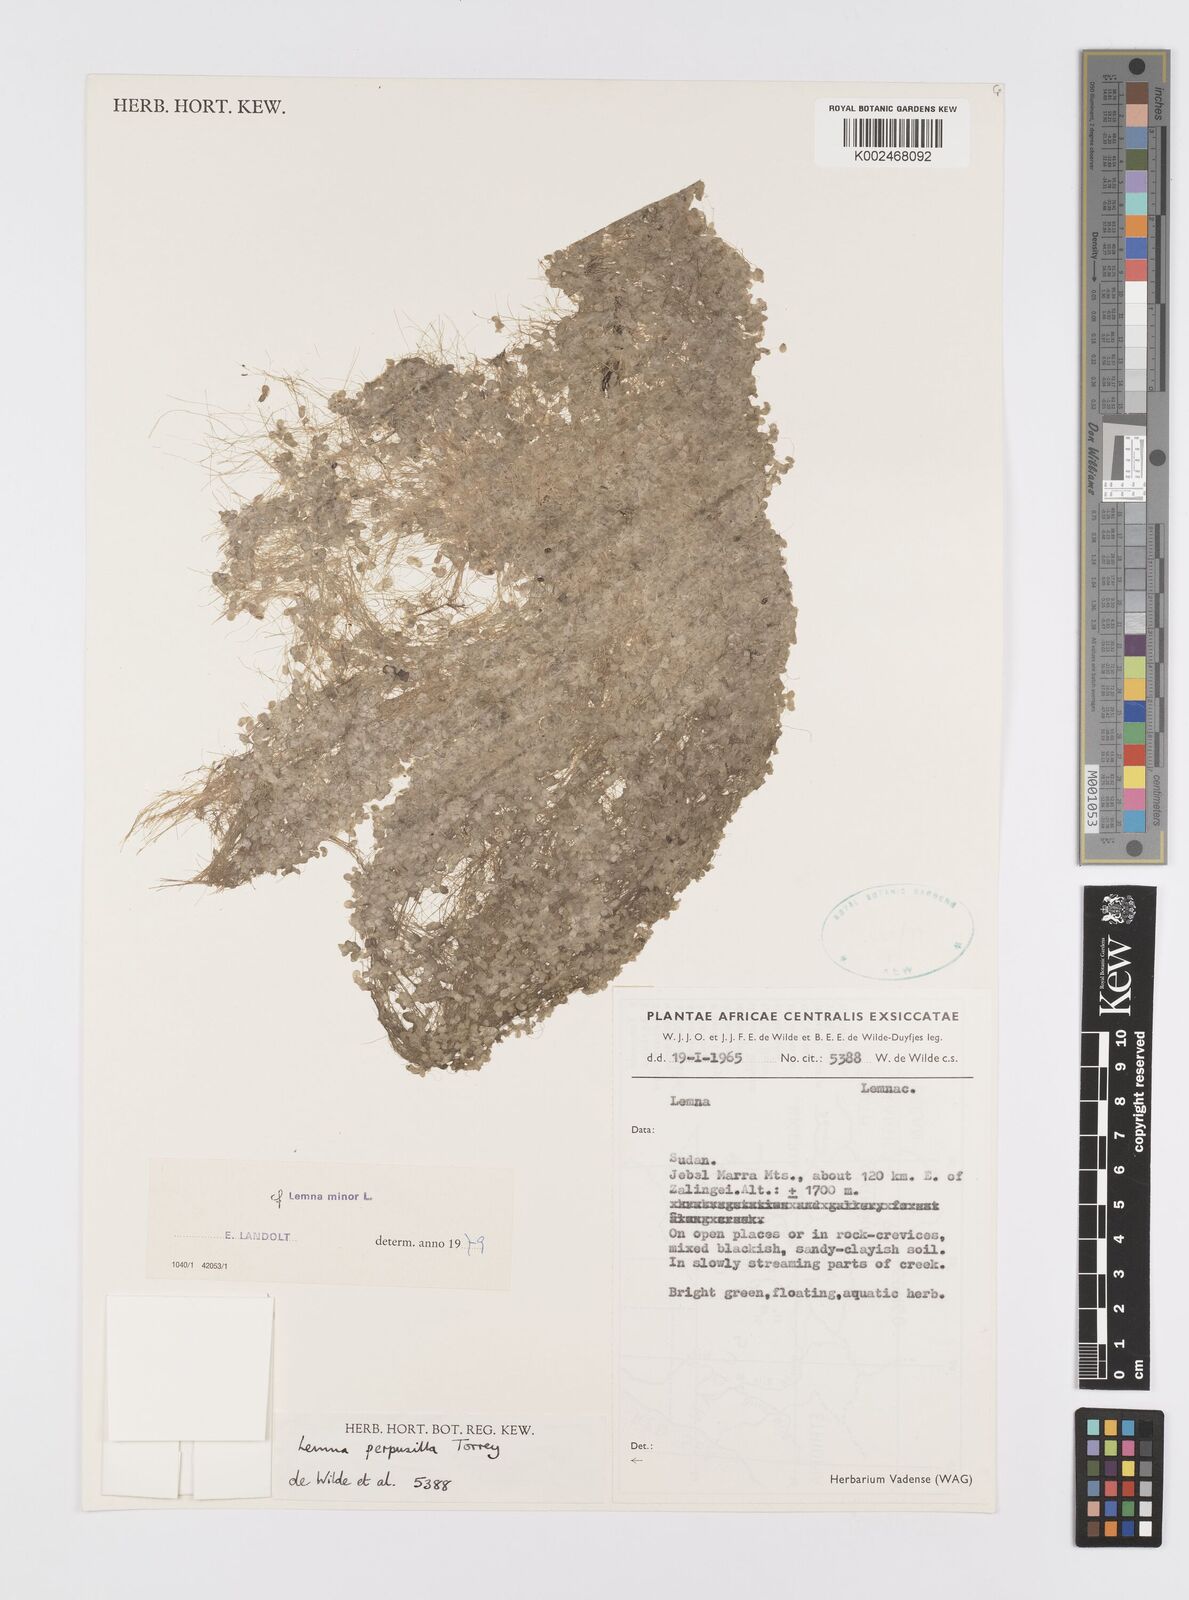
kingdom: Plantae
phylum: Tracheophyta
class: Liliopsida
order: Alismatales
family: Araceae
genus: Lemna
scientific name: Lemna minor
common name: Common duckweed
